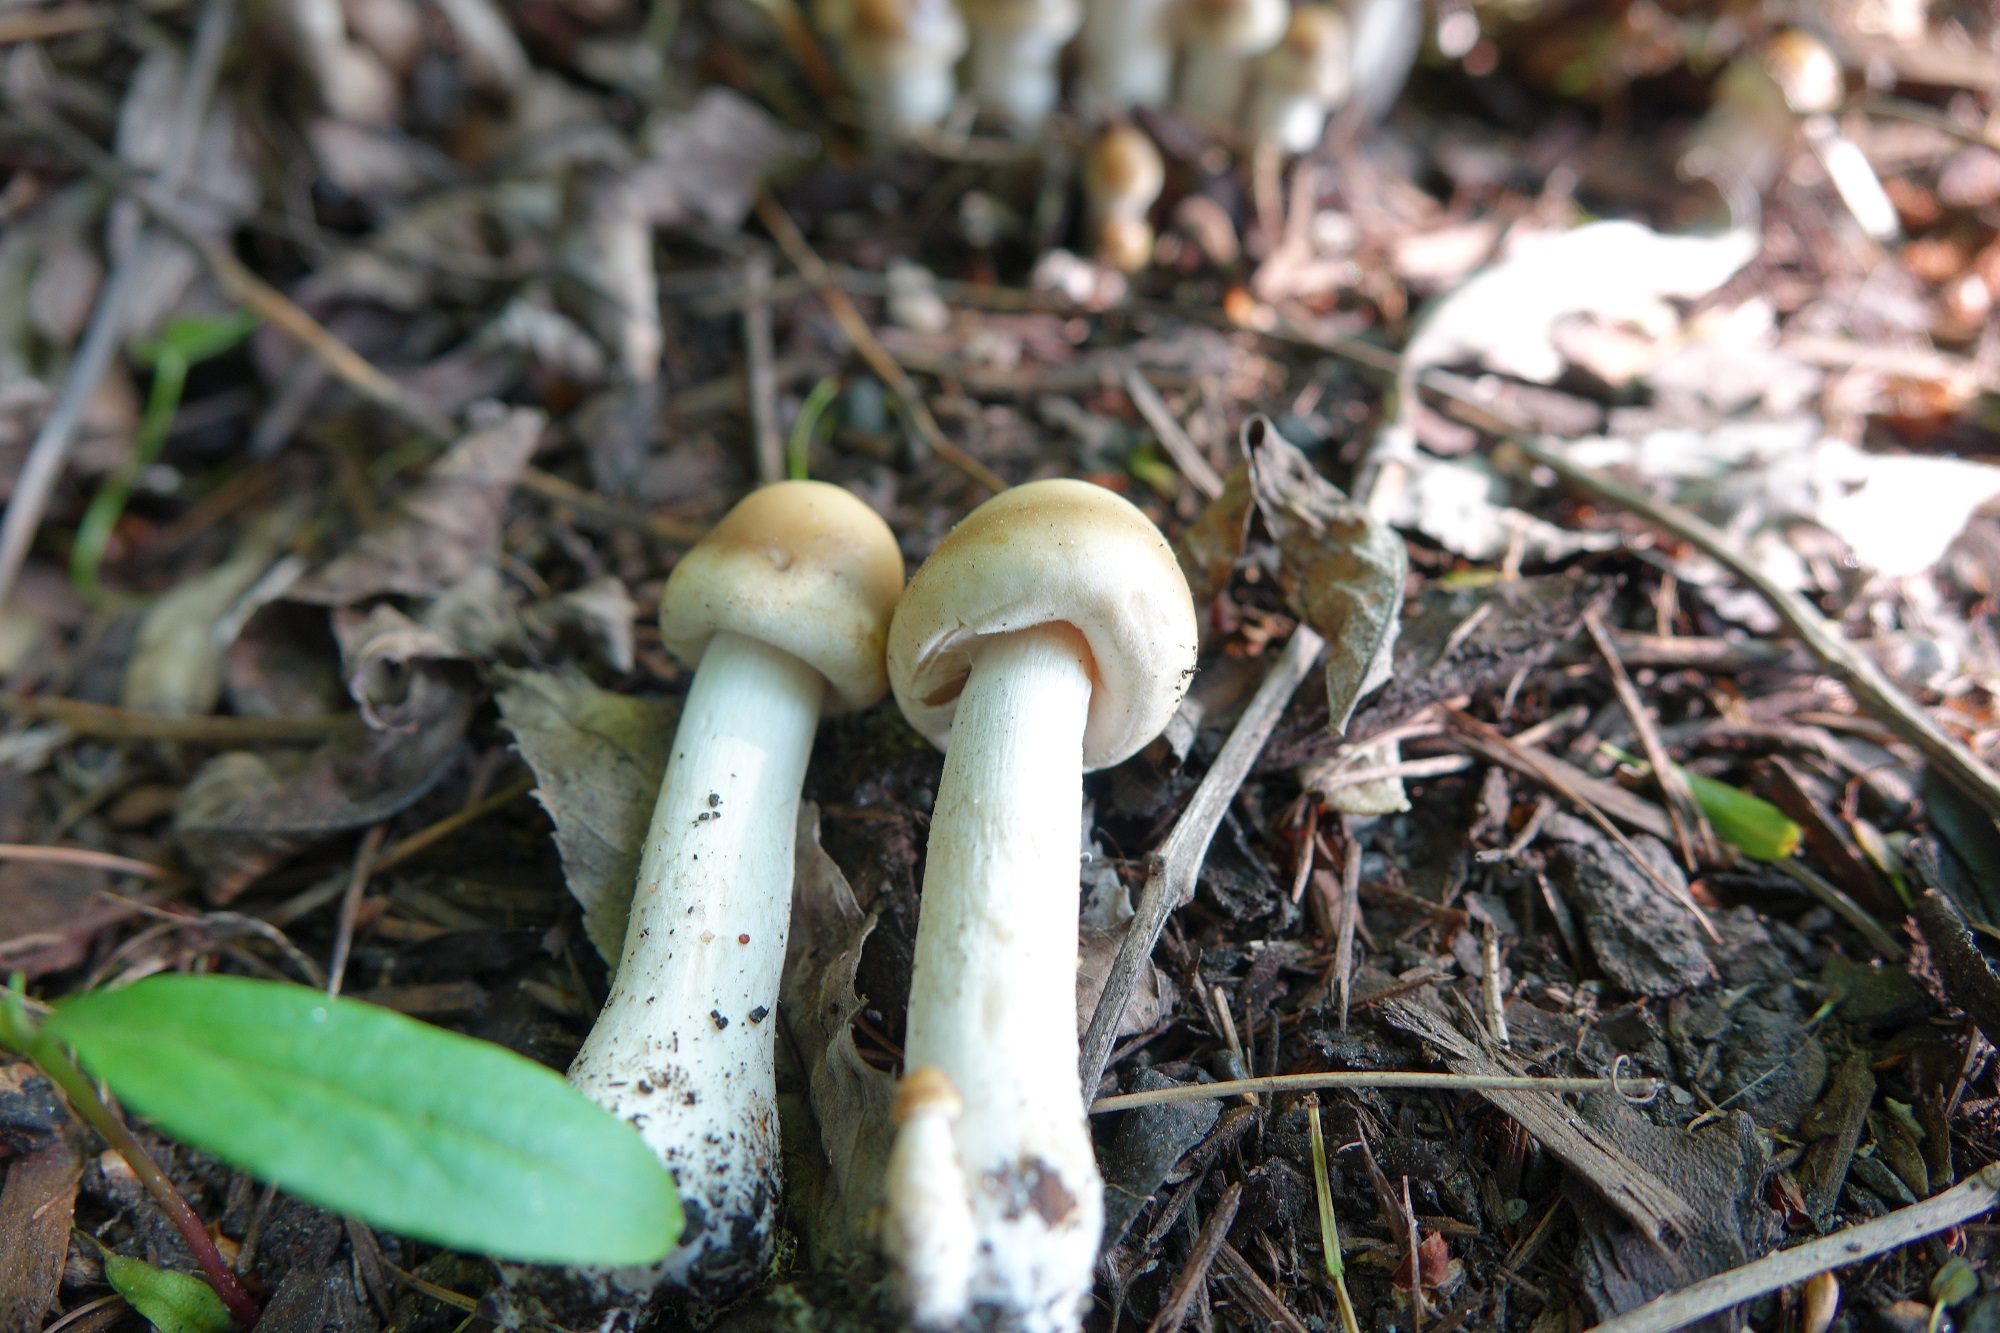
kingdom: Fungi
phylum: Basidiomycota
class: Agaricomycetes
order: Agaricales
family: Strophariaceae
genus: Agrocybe
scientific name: Agrocybe praecox
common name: Spring fieldcap
